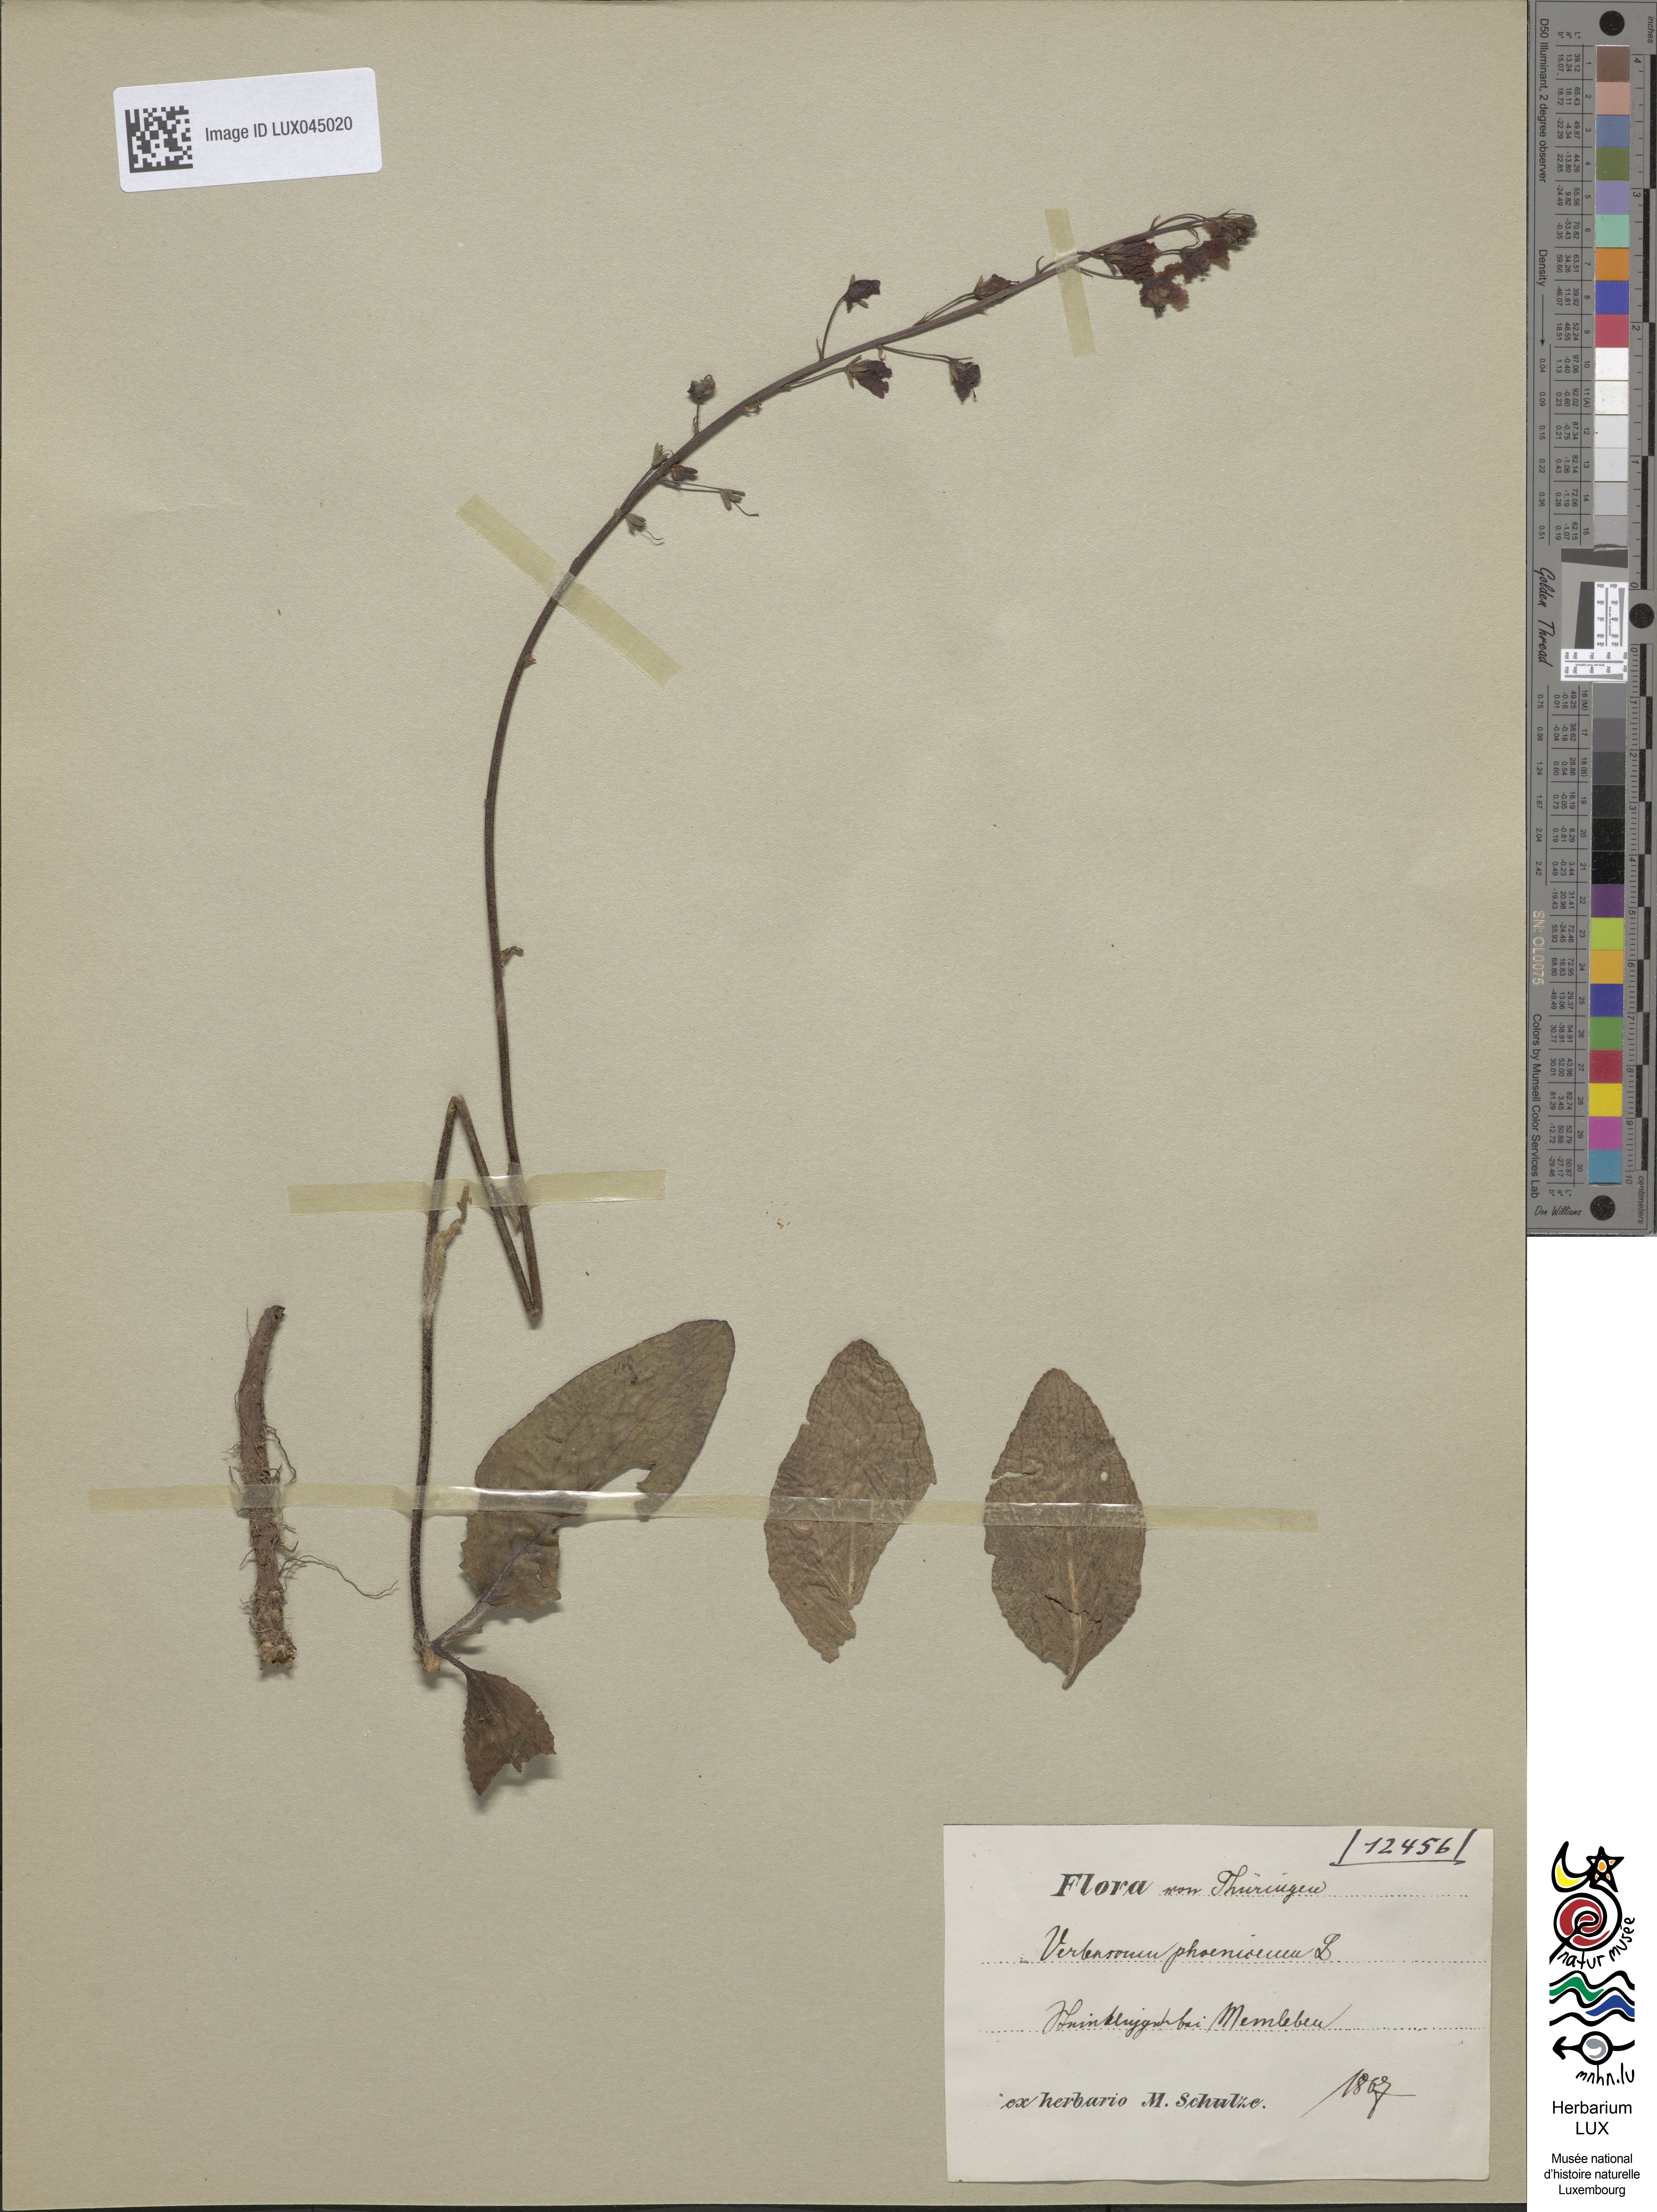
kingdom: Plantae
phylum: Tracheophyta
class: Magnoliopsida
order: Lamiales
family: Scrophulariaceae
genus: Verbascum
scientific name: Verbascum phoeniceum
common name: Purple mullein
